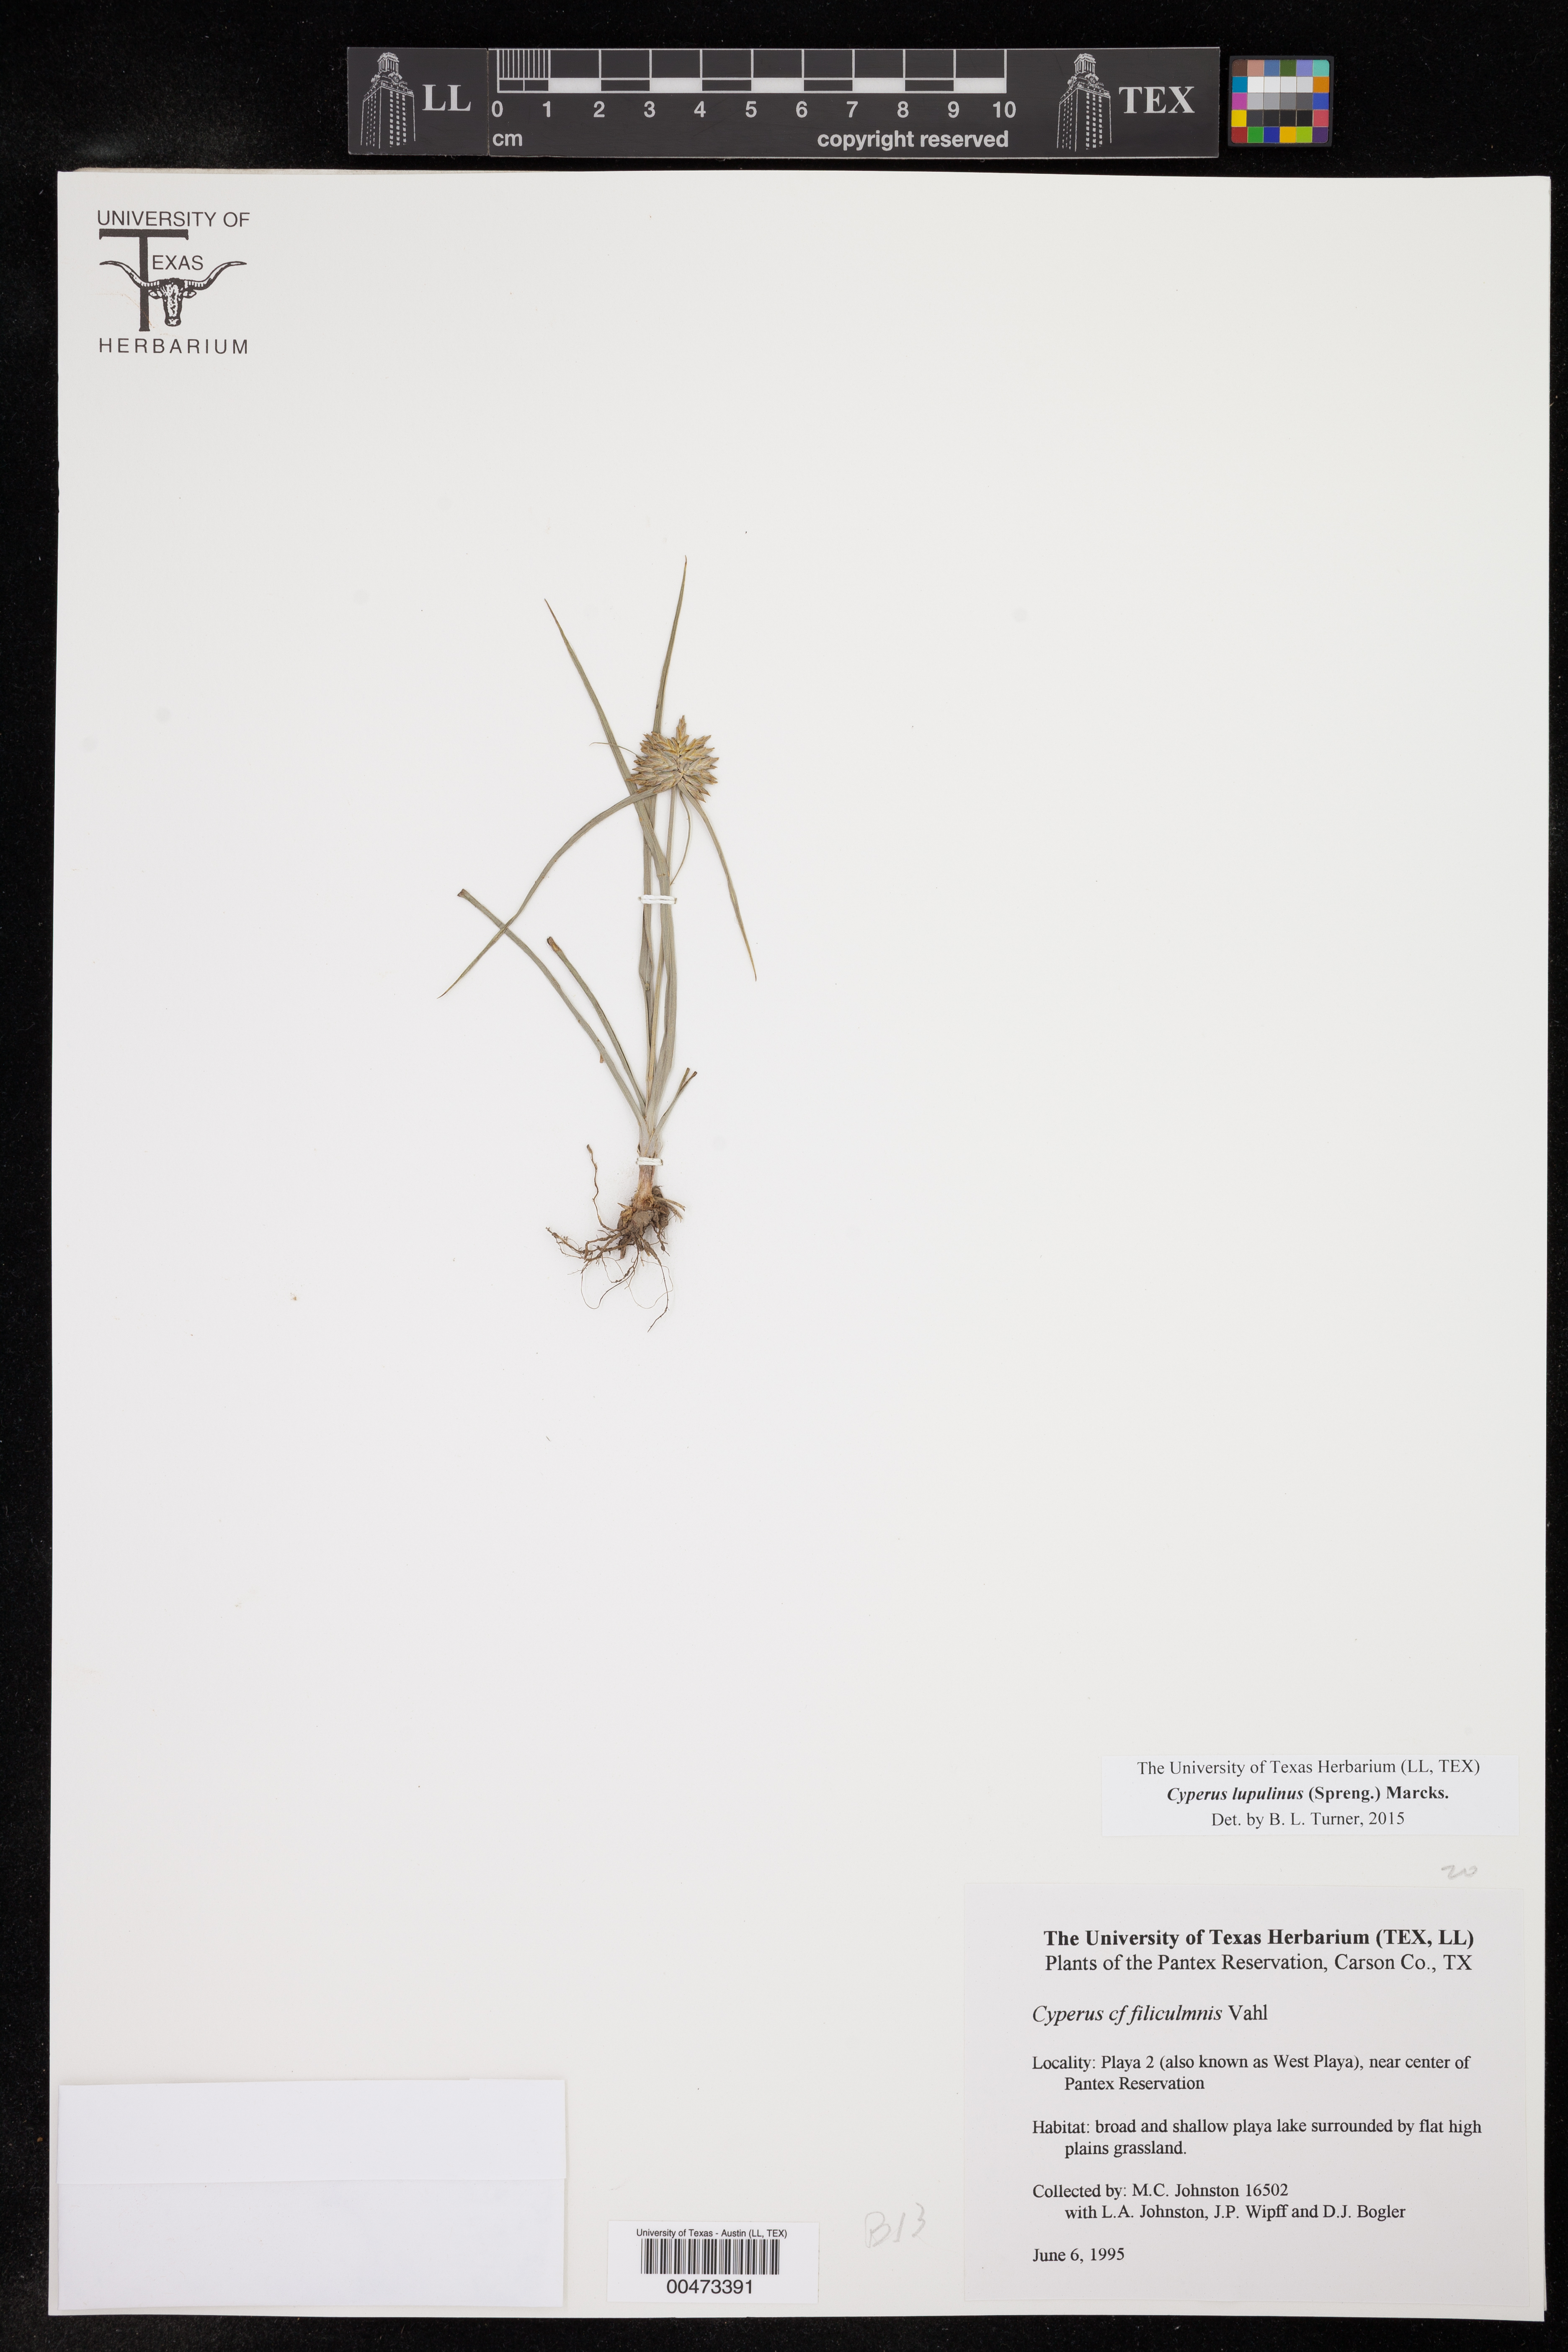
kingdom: Plantae
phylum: Tracheophyta
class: Liliopsida
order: Poales
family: Cyperaceae
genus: Cyperus
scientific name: Cyperus lupulinus
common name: Great plains flatsedge
